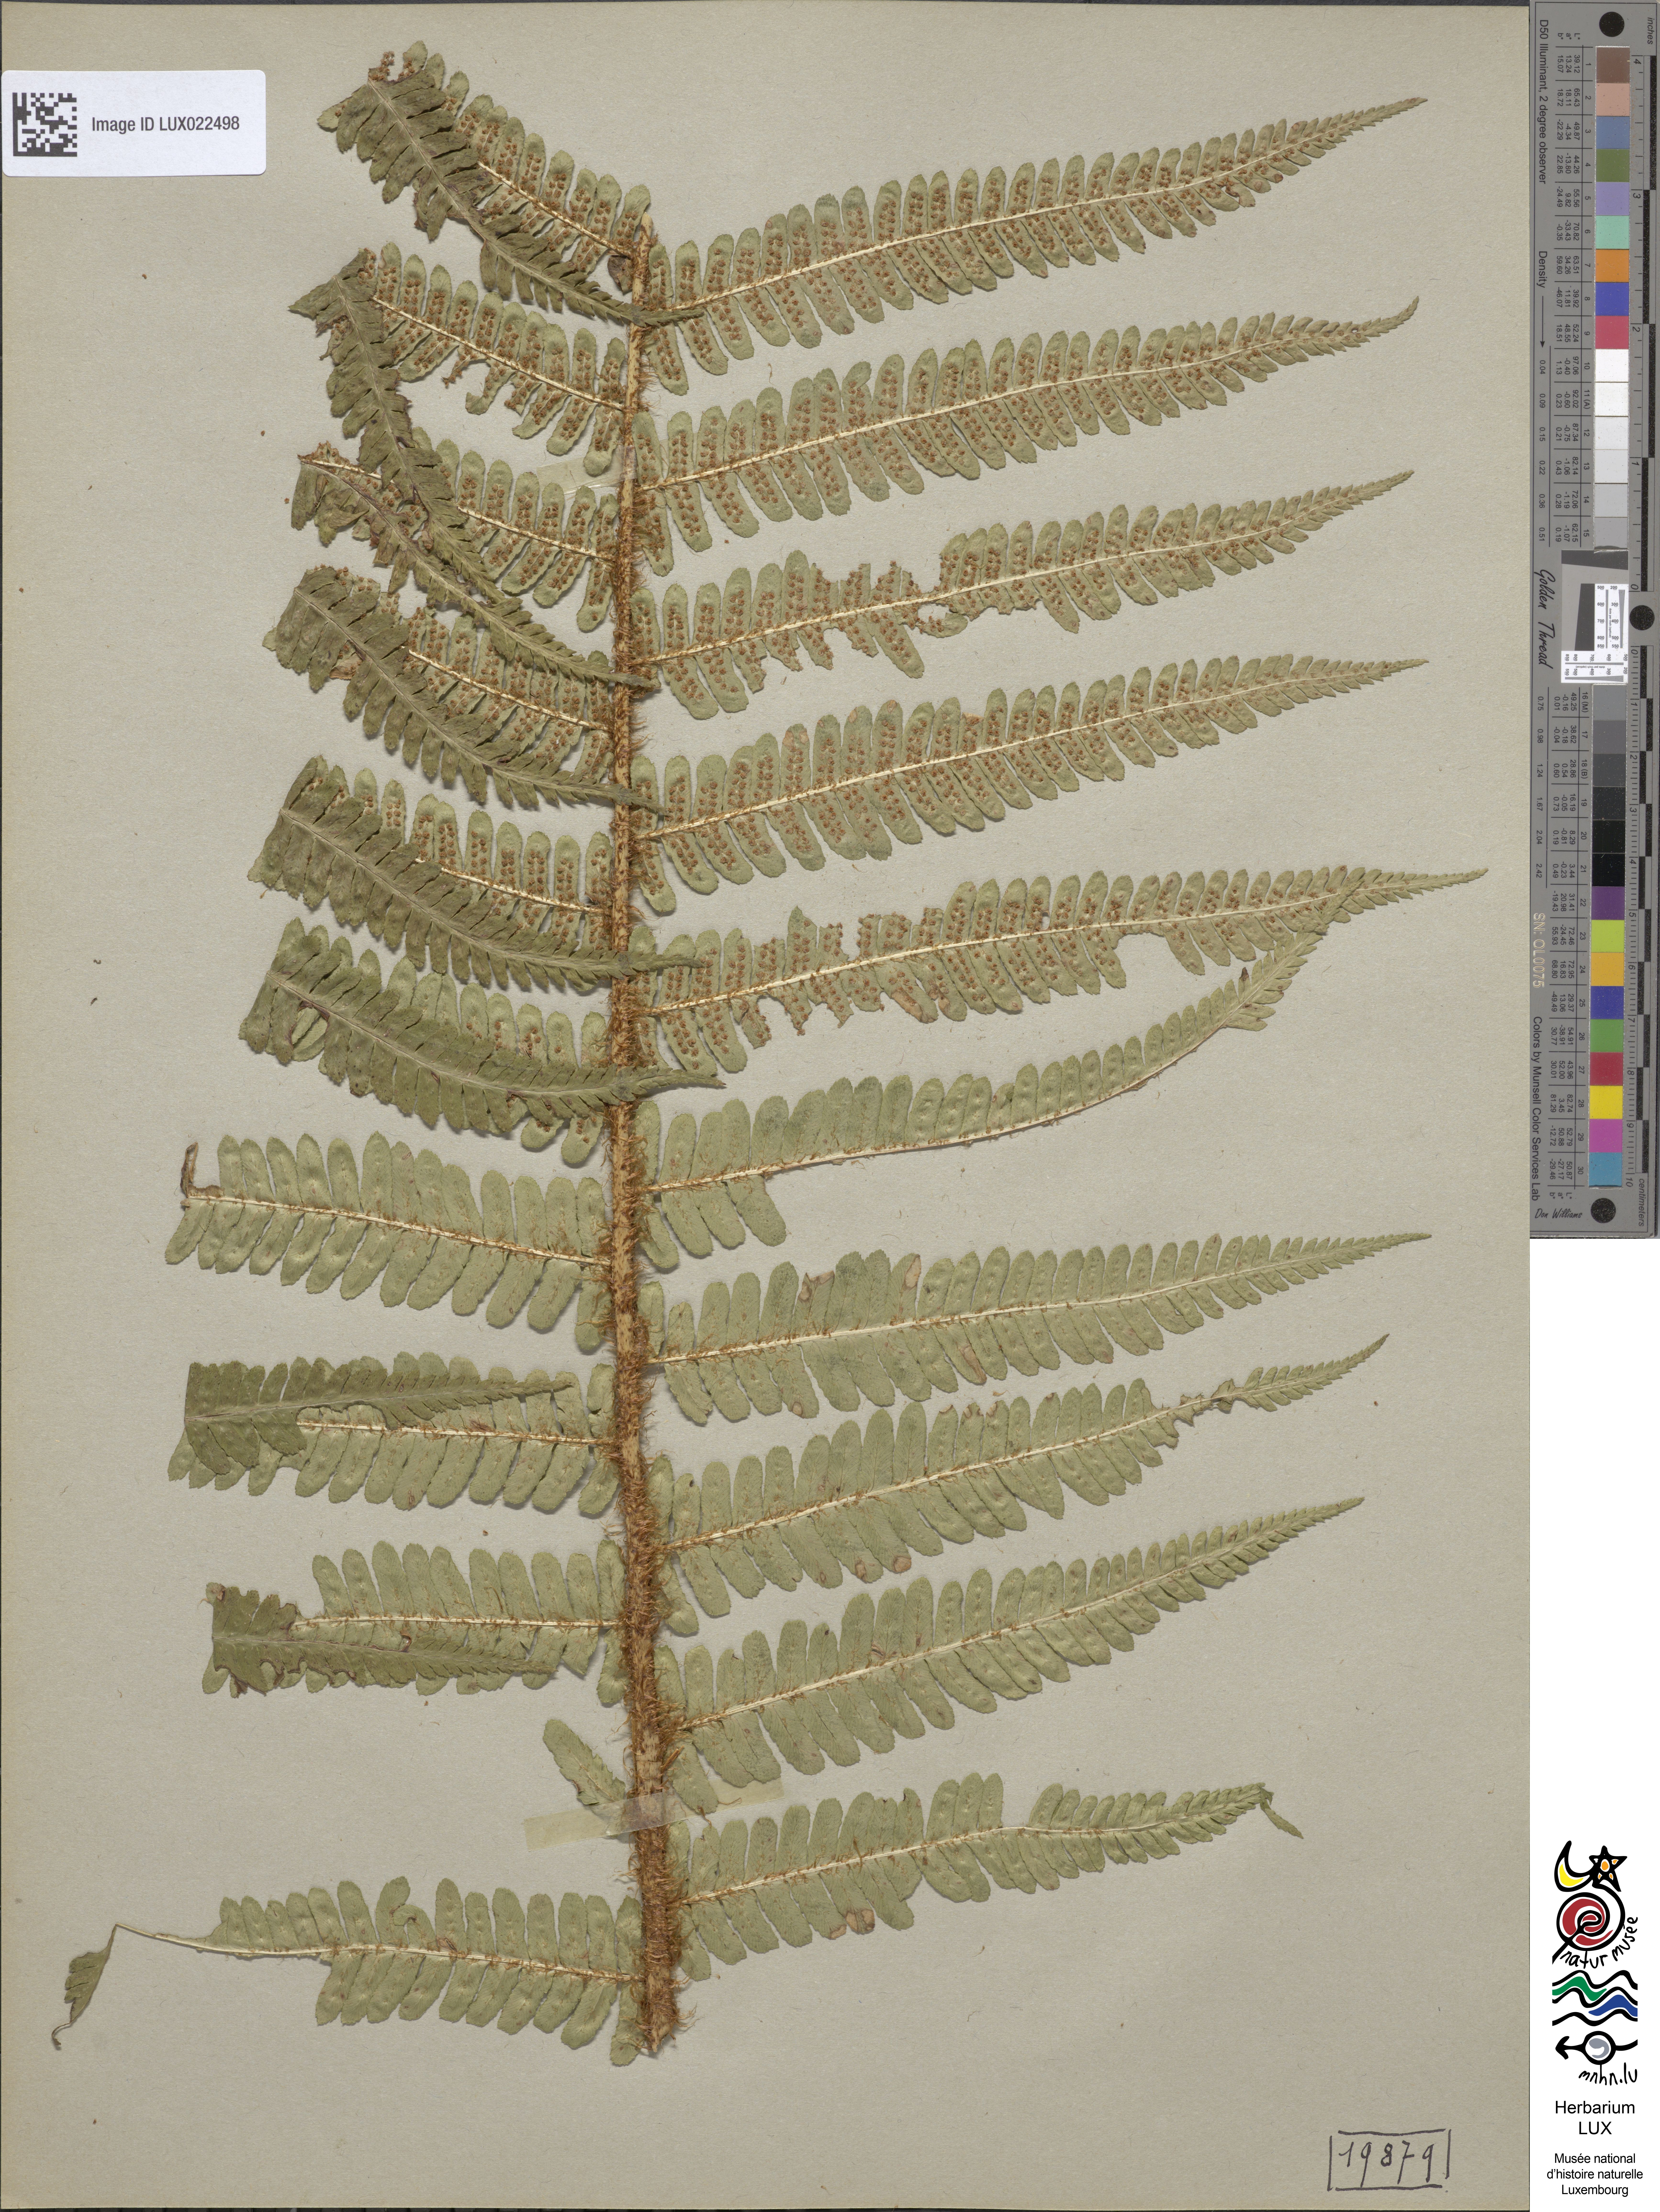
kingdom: Plantae
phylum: Tracheophyta
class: Polypodiopsida
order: Polypodiales
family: Dryopteridaceae
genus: Dryopteris
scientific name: Dryopteris borreri
